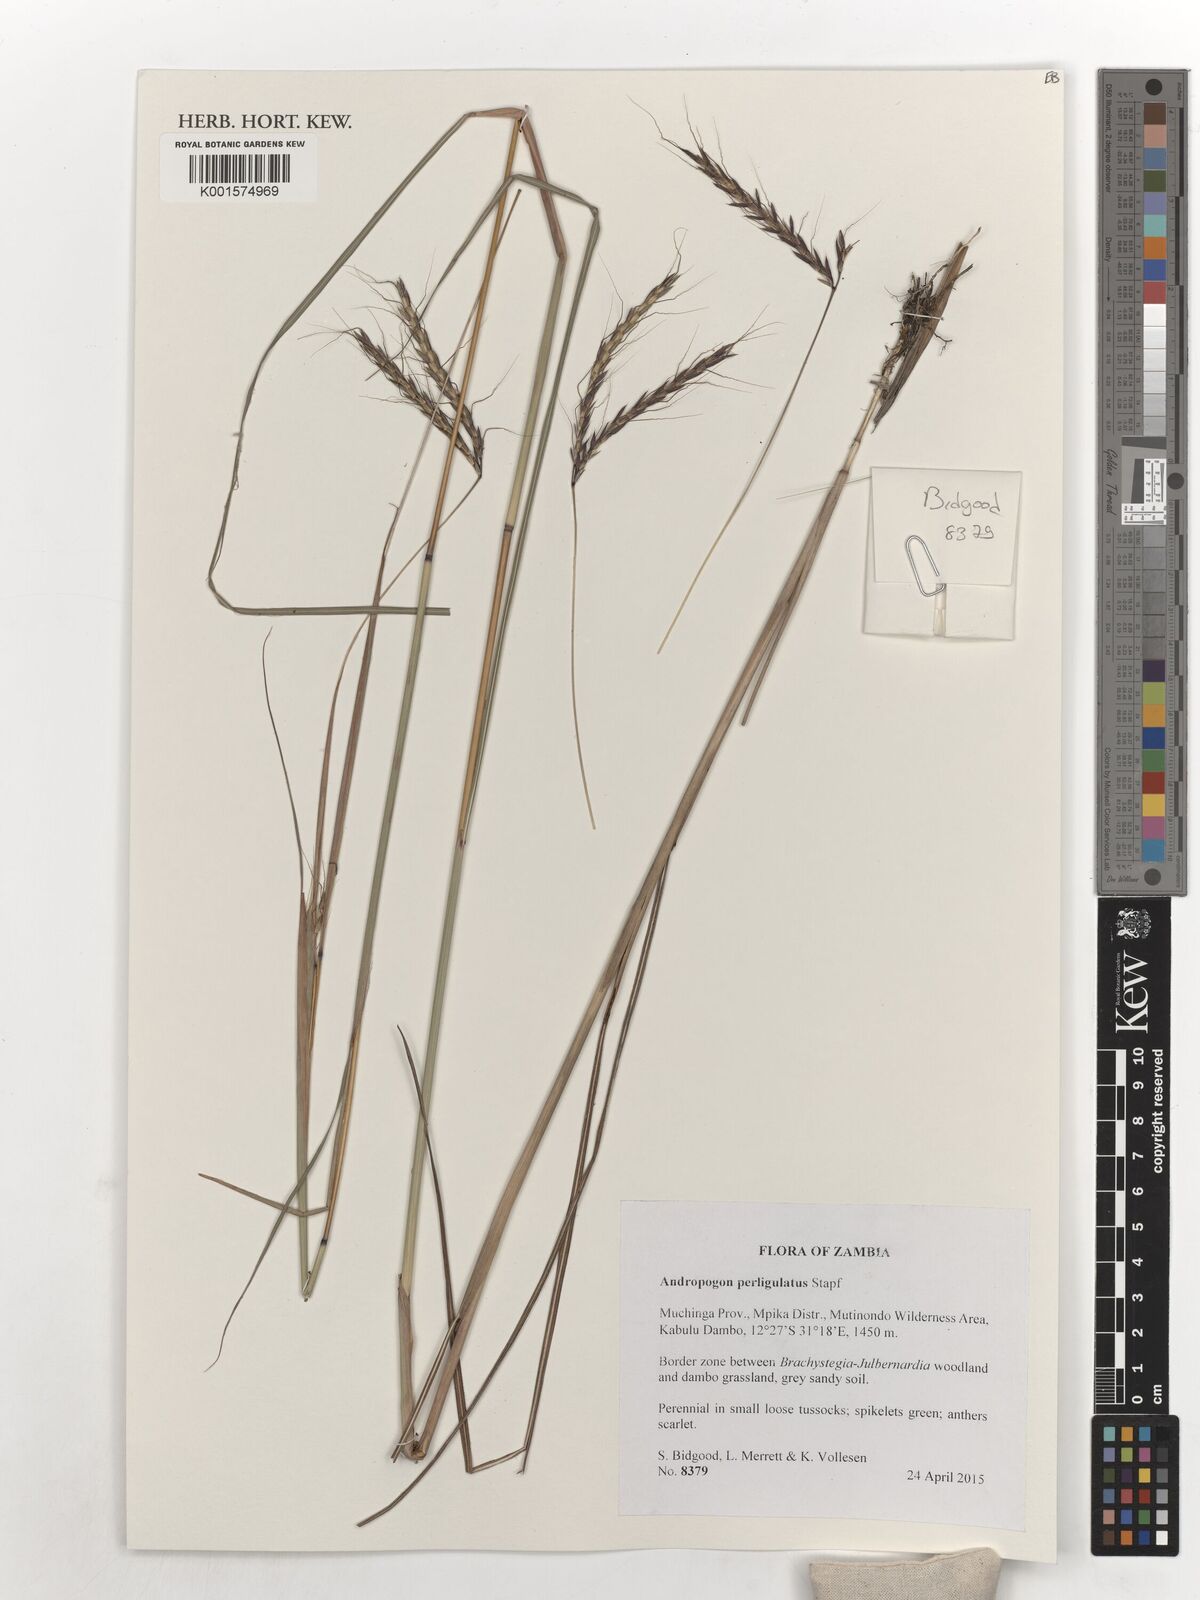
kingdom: Plantae
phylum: Tracheophyta
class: Liliopsida
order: Poales
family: Poaceae
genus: Andropogon
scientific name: Andropogon perligulatus
